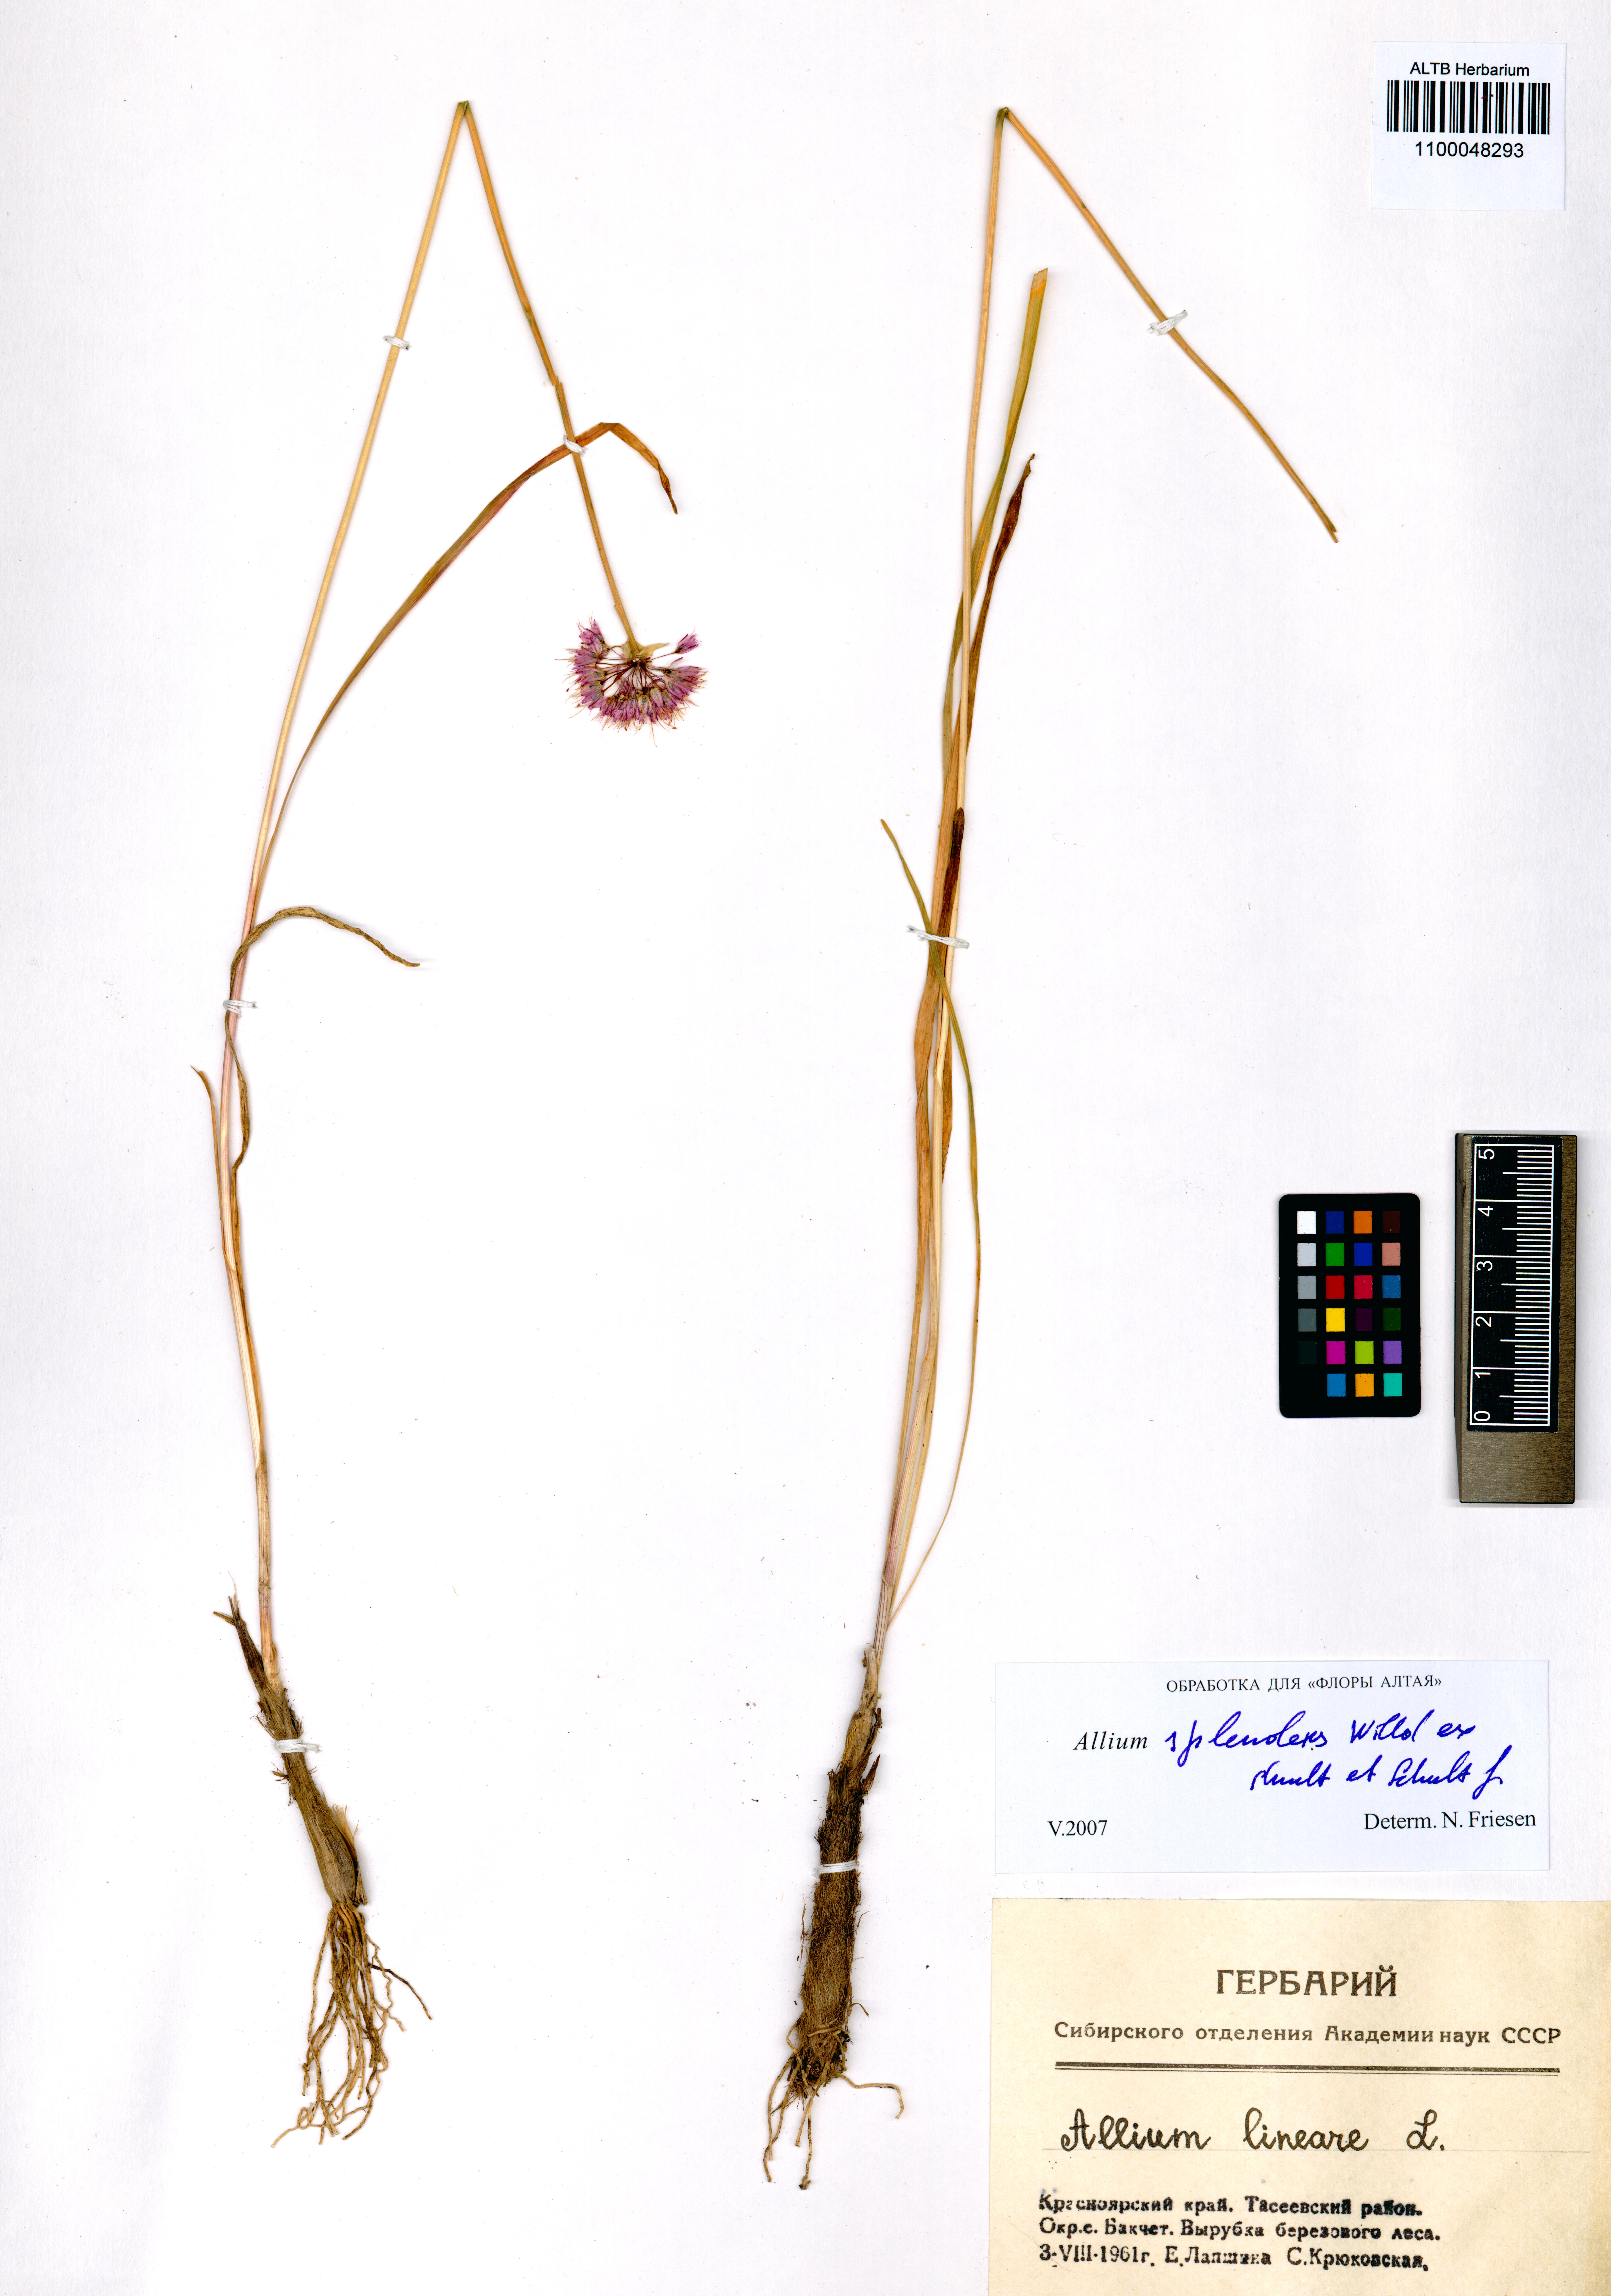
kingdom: Plantae
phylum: Tracheophyta
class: Liliopsida
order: Asparagales
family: Amaryllidaceae
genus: Allium
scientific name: Allium splendens
